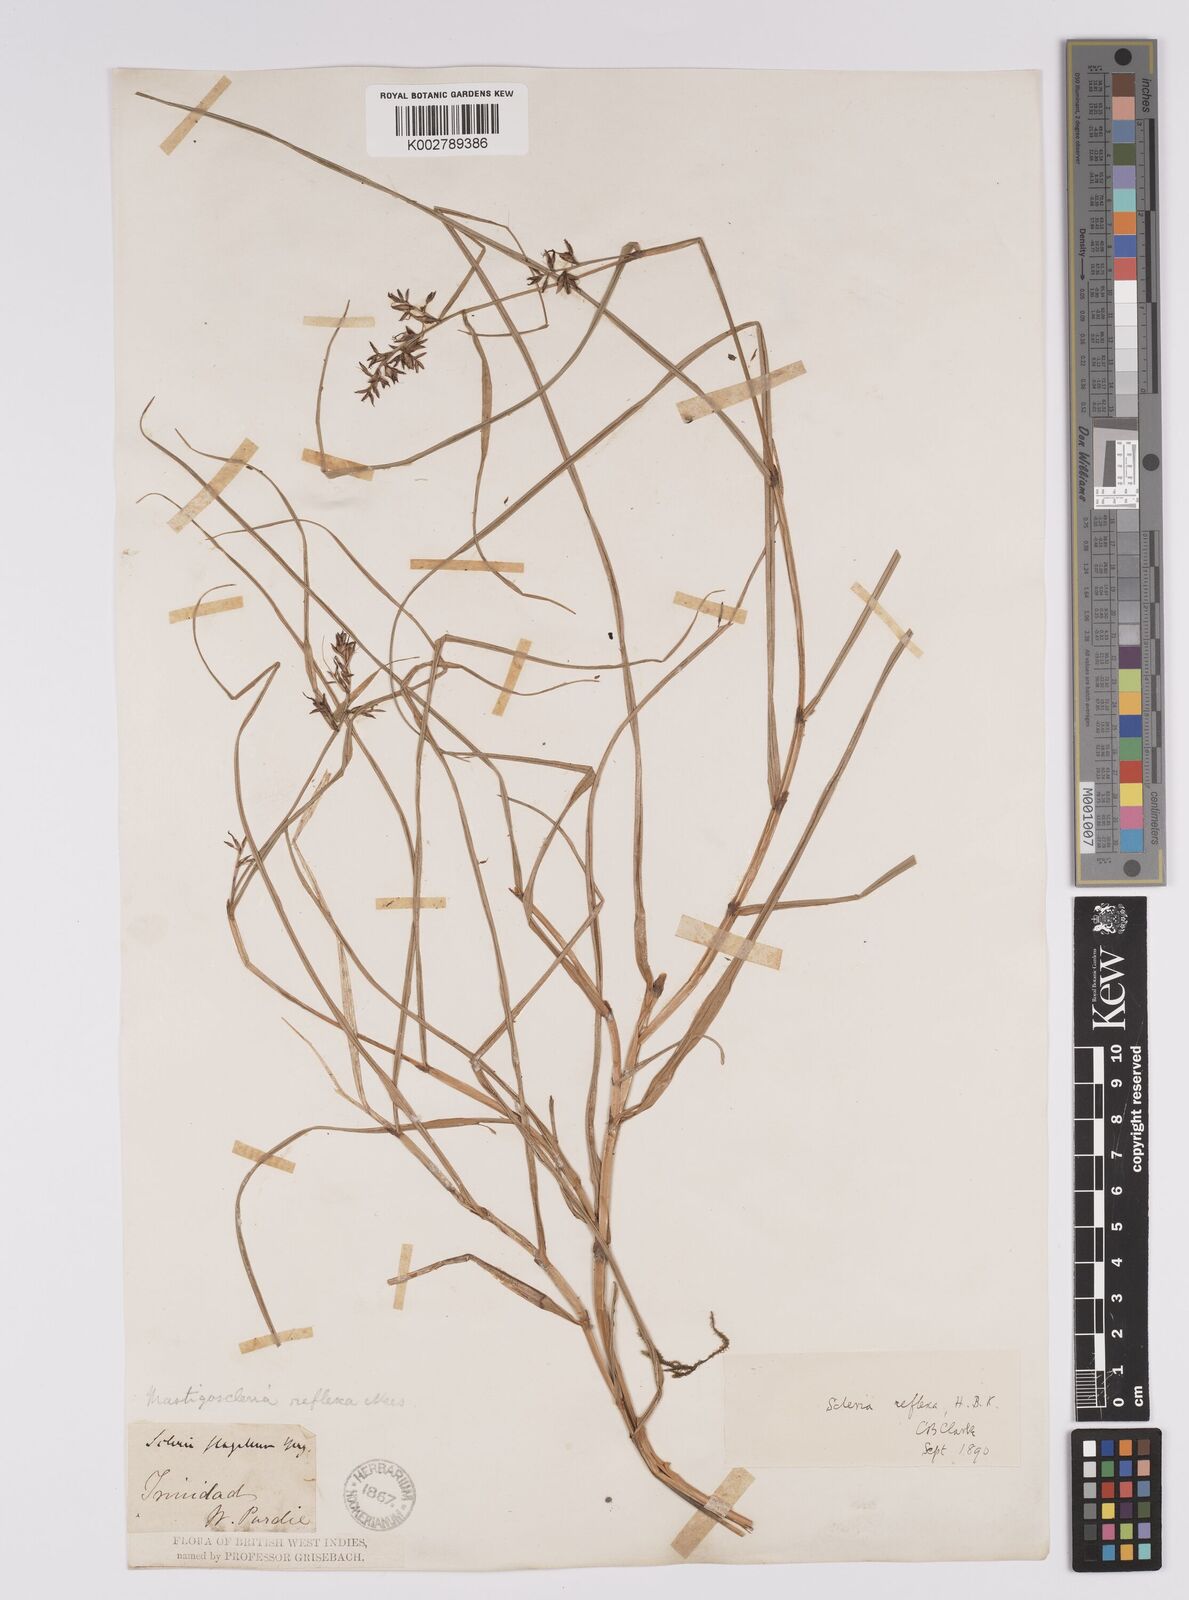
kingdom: Plantae
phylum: Tracheophyta
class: Liliopsida
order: Poales
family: Cyperaceae
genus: Scleria
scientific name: Scleria secans
